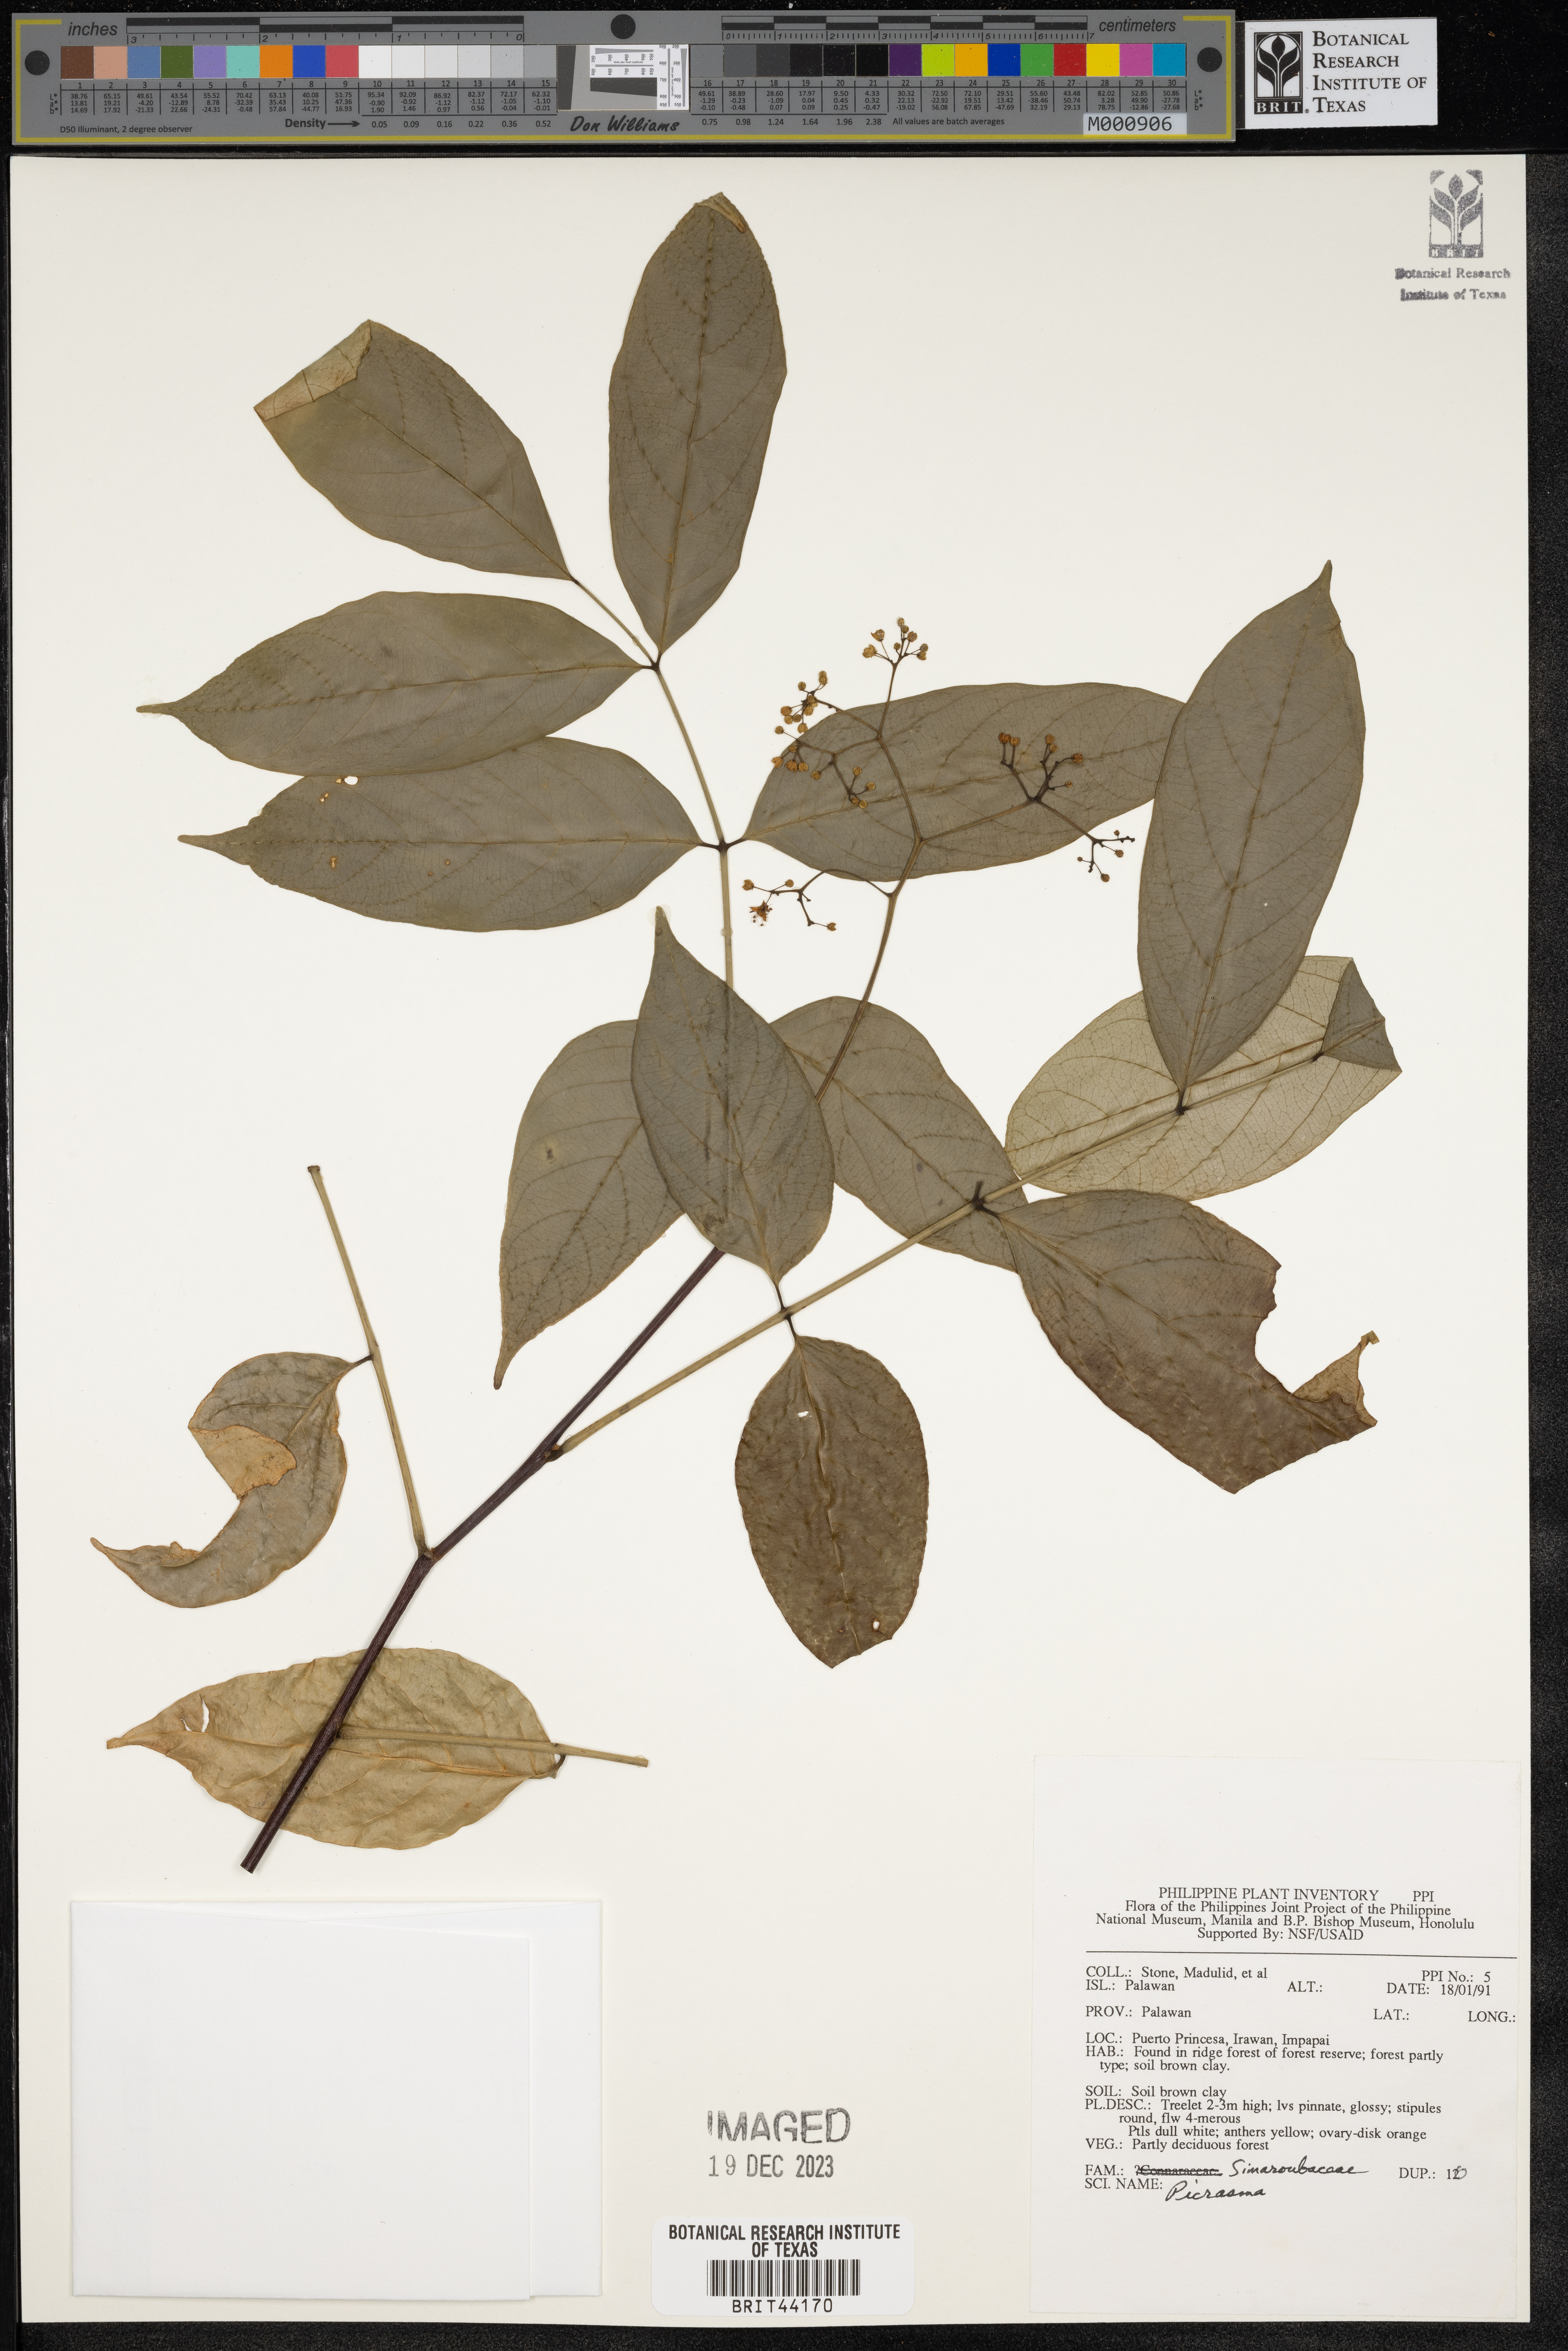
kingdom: Plantae
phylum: Tracheophyta
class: Magnoliopsida
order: Sapindales
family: Simaroubaceae
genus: Picrasma
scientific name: Picrasma
